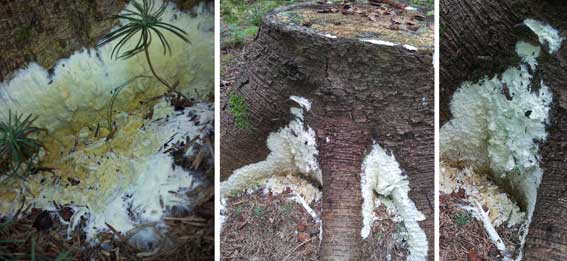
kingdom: Fungi
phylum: Ascomycota
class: Sordariomycetes
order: Hypocreales
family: Hypocreaceae
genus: Trichoderma
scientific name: Trichoderma citrinum
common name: udbredt kødkerne
